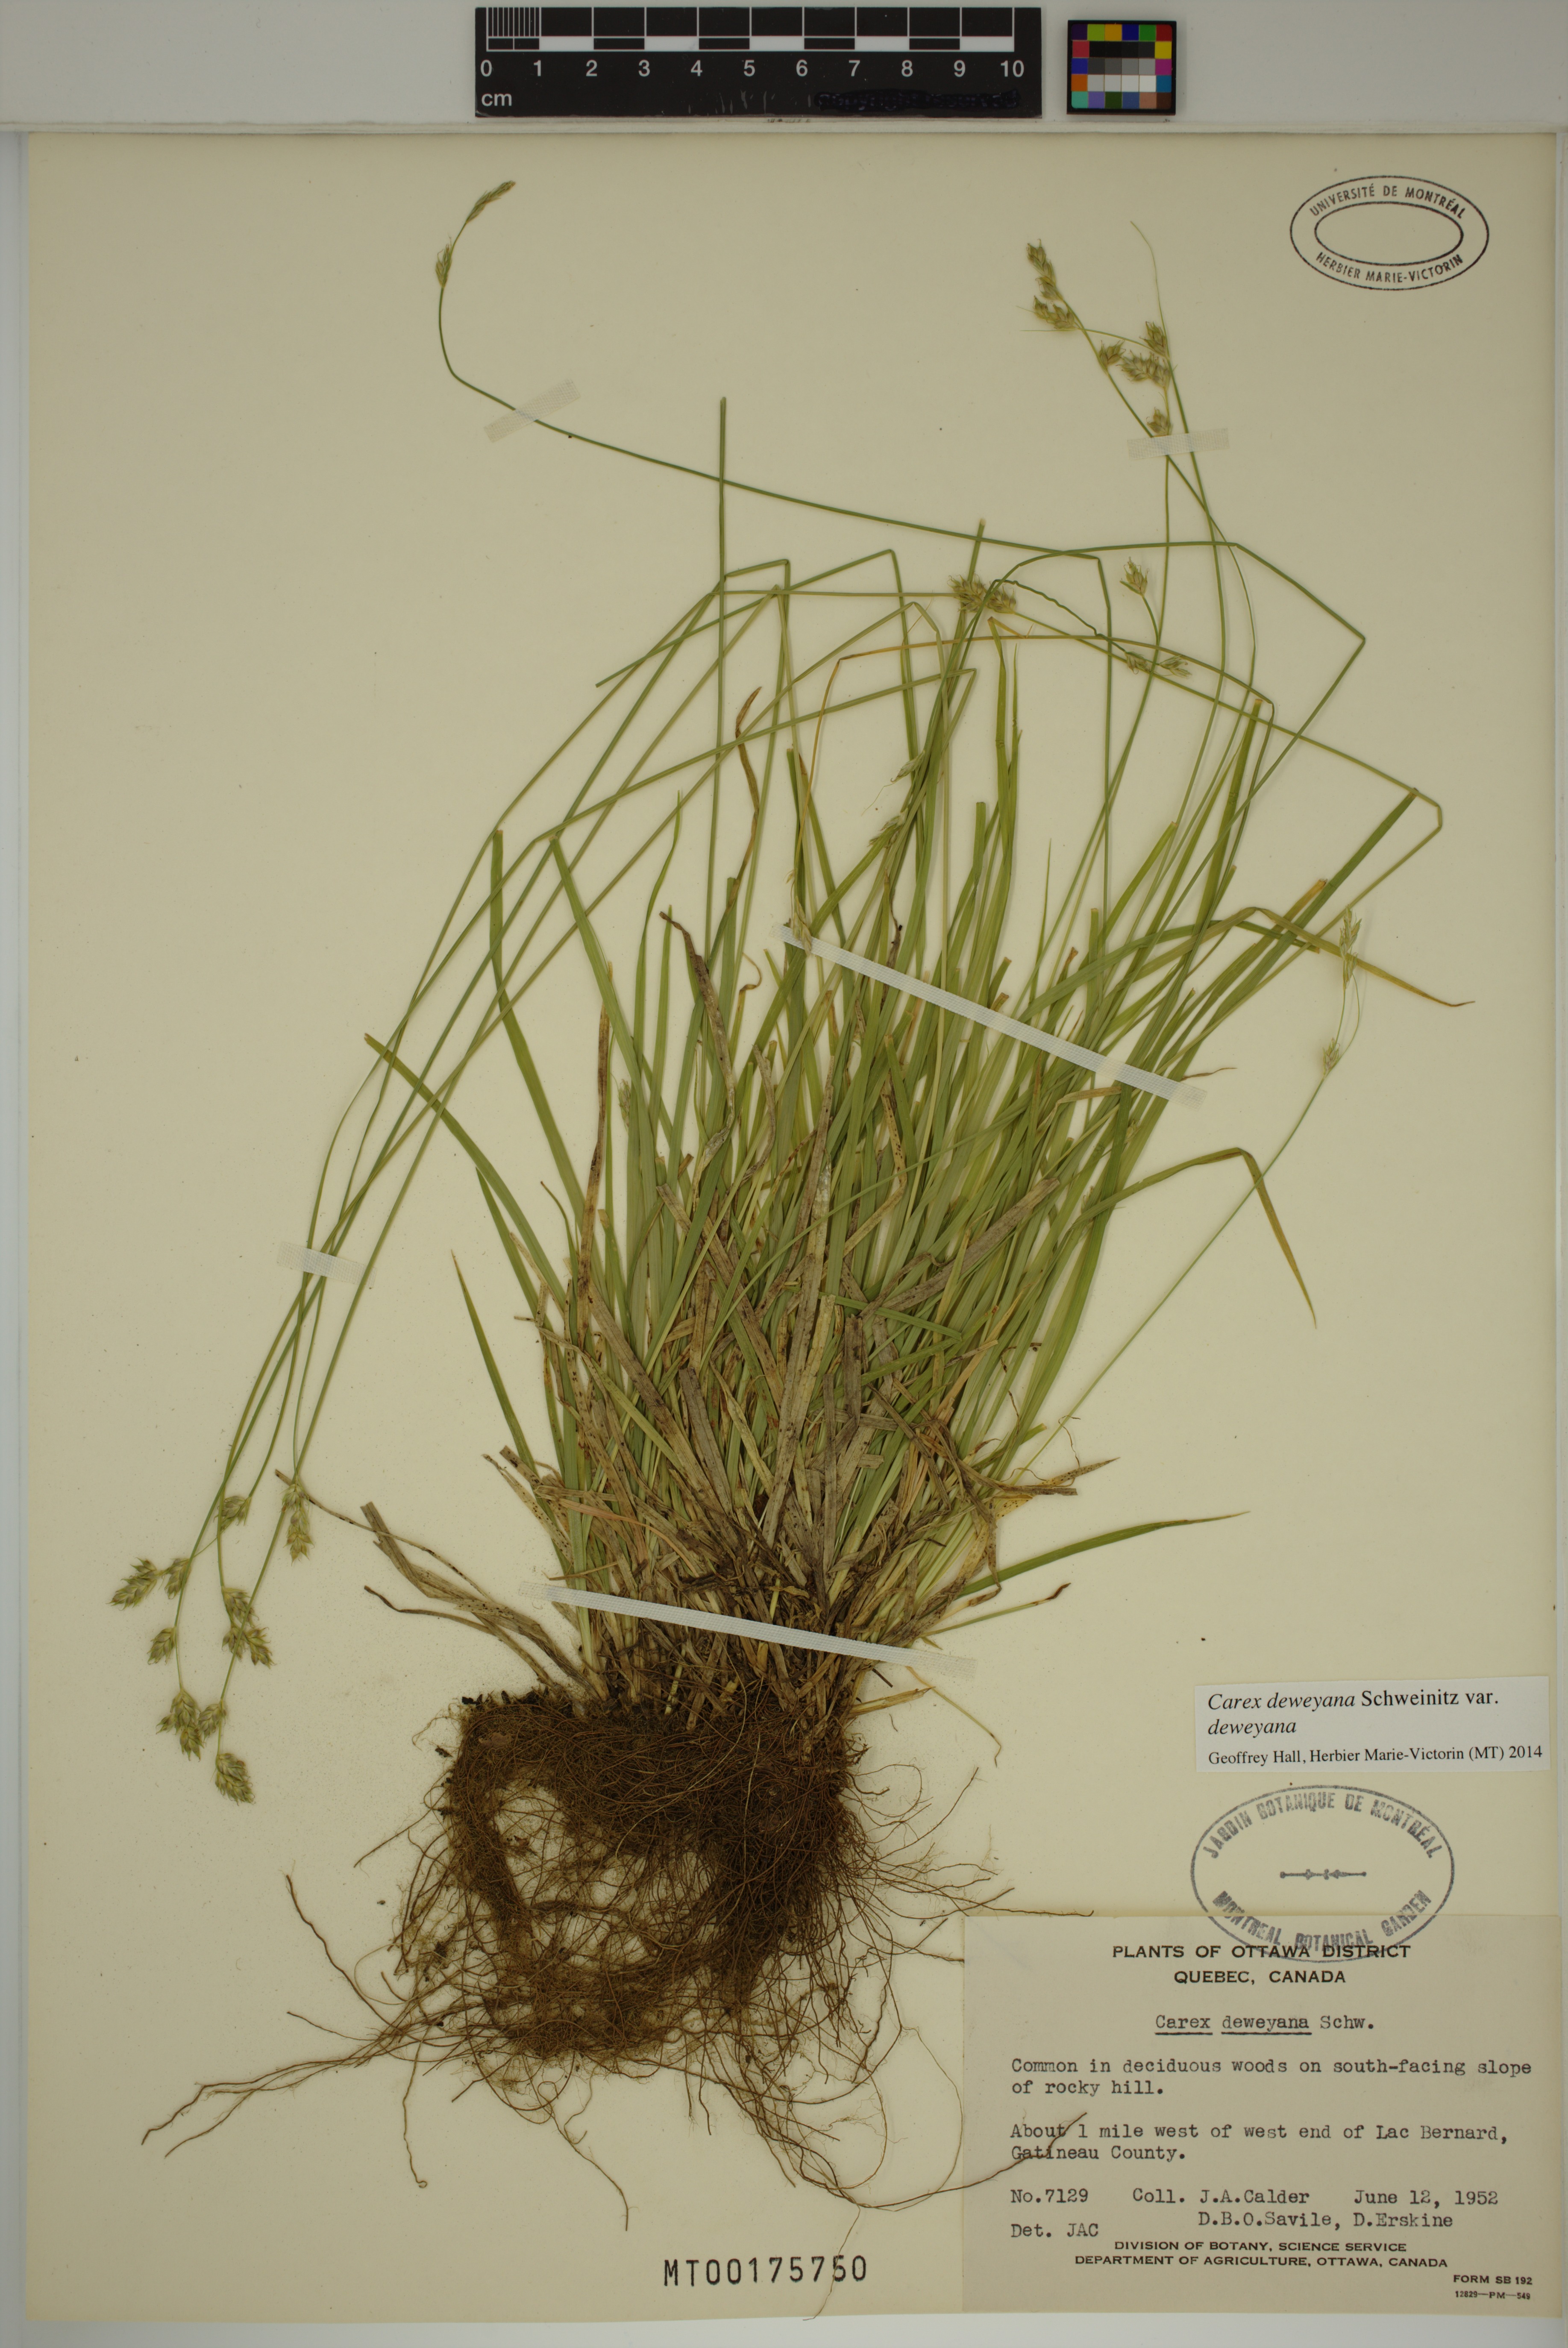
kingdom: Plantae
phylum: Tracheophyta
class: Liliopsida
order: Poales
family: Cyperaceae
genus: Carex
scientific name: Carex deweyana
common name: Dewey's sedge
